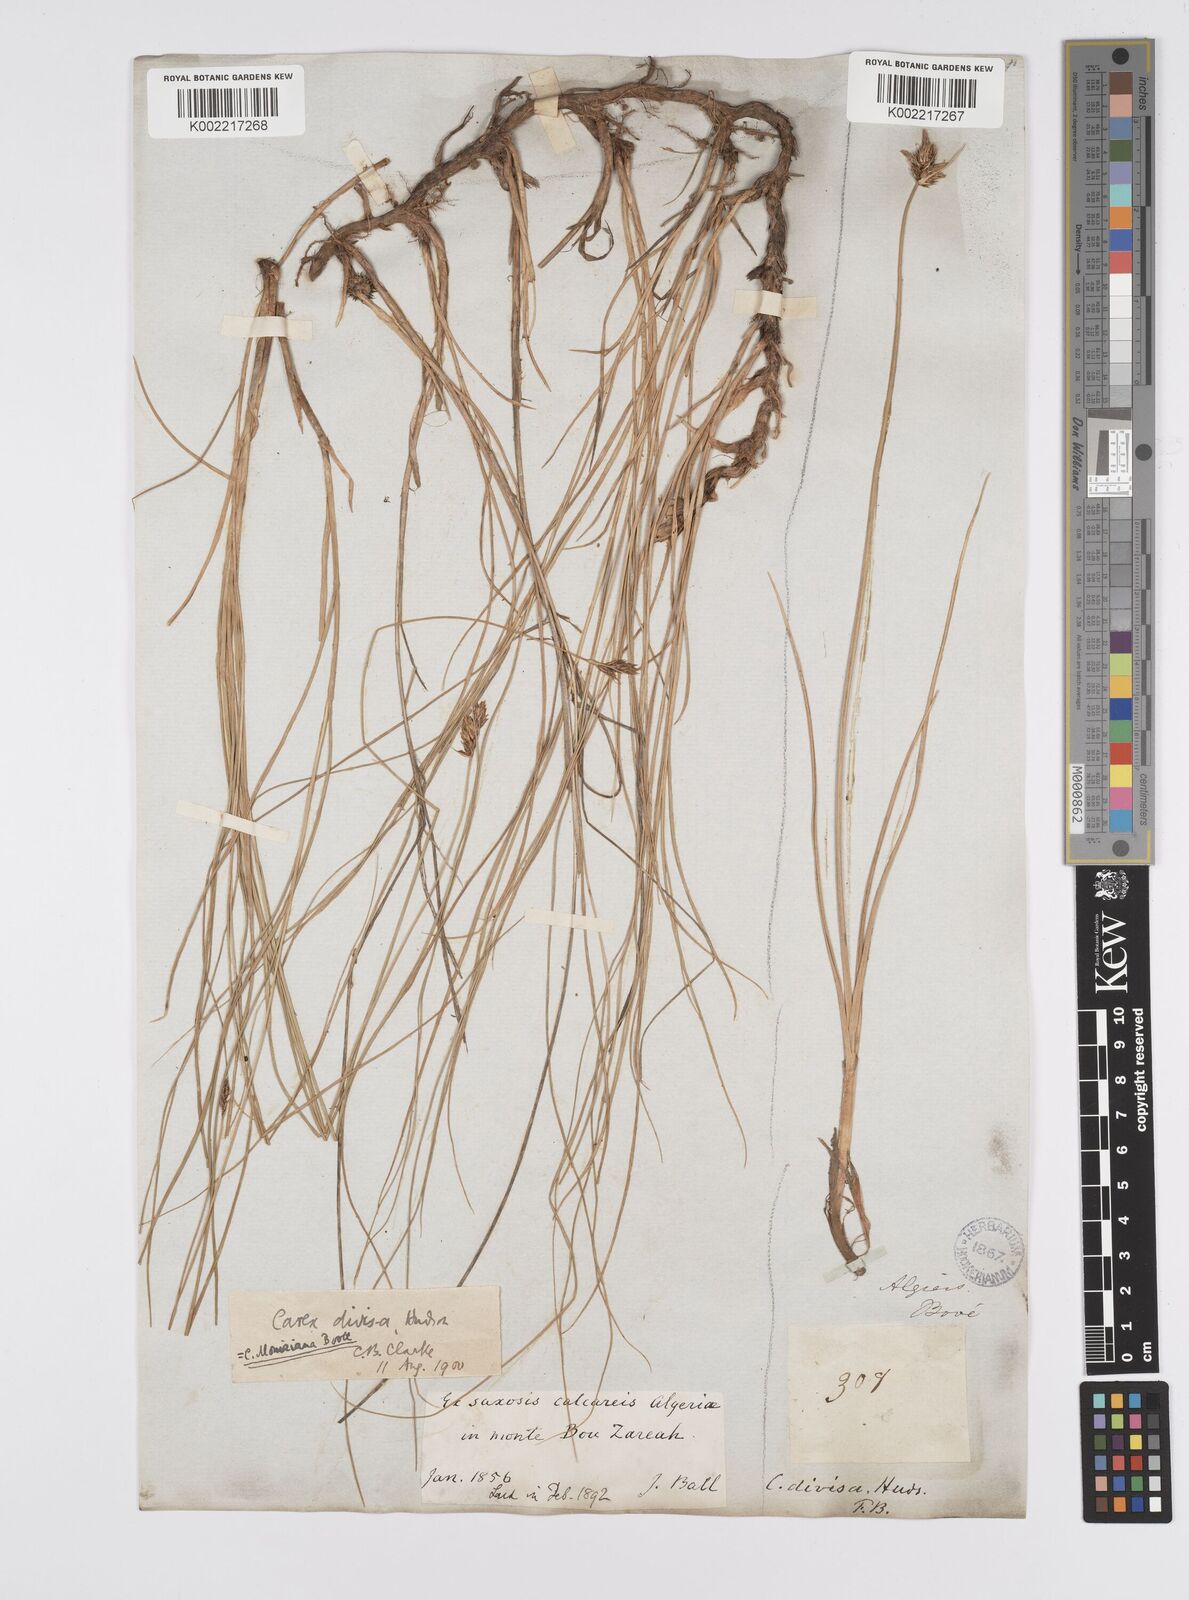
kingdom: Plantae
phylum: Tracheophyta
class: Liliopsida
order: Poales
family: Cyperaceae
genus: Carex
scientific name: Carex divisa
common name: Divided sedge
